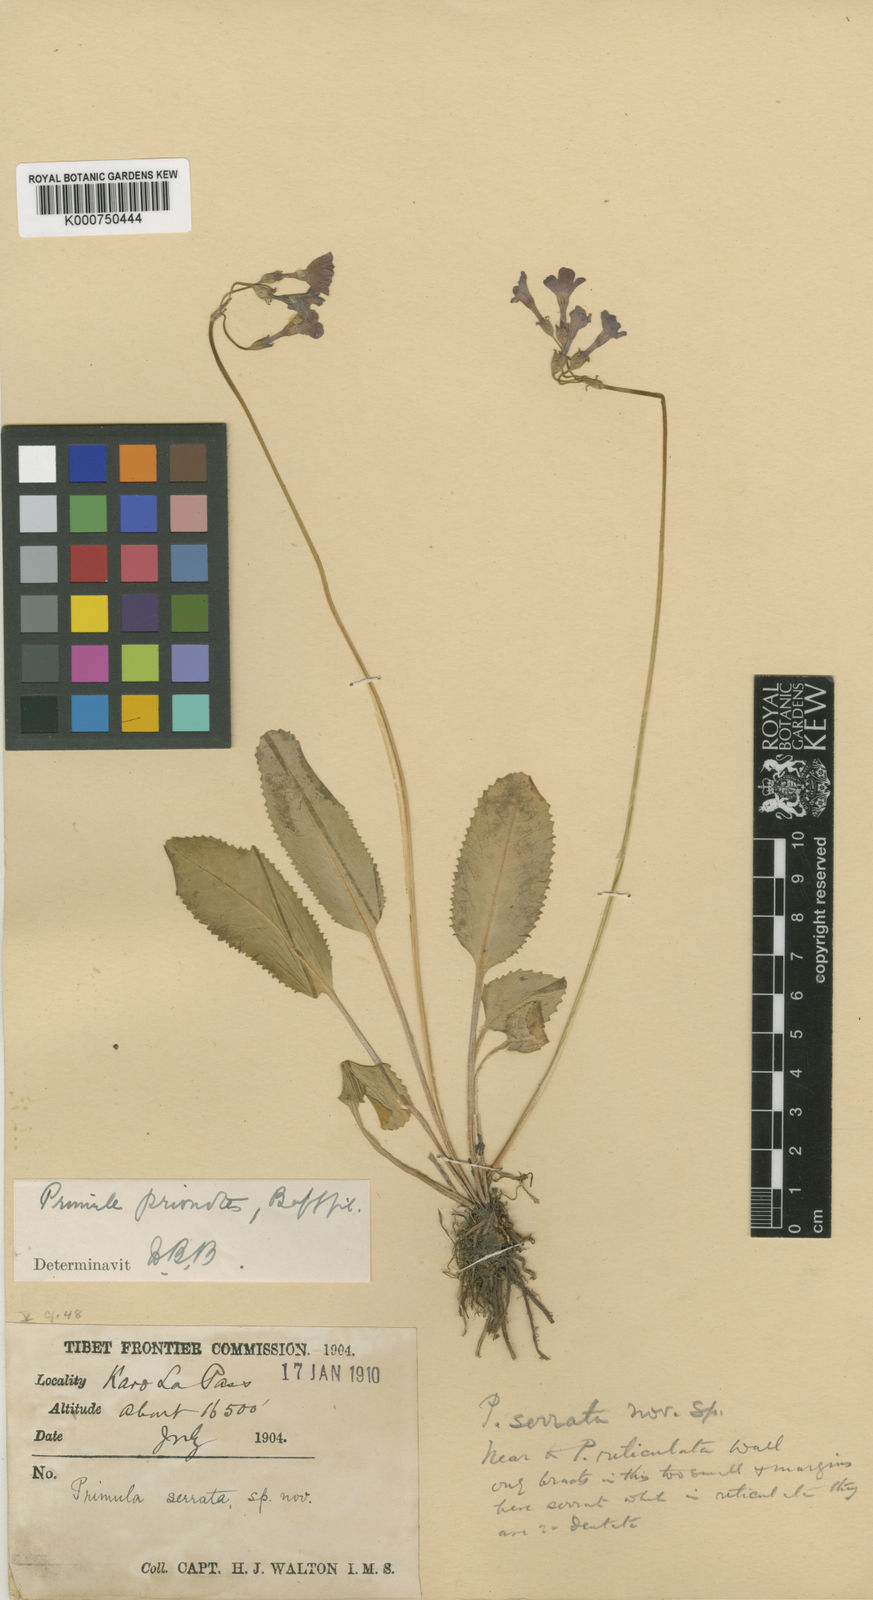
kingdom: Plantae
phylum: Tracheophyta
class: Magnoliopsida
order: Ericales
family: Primulaceae
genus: Primula
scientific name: Primula waltonii
